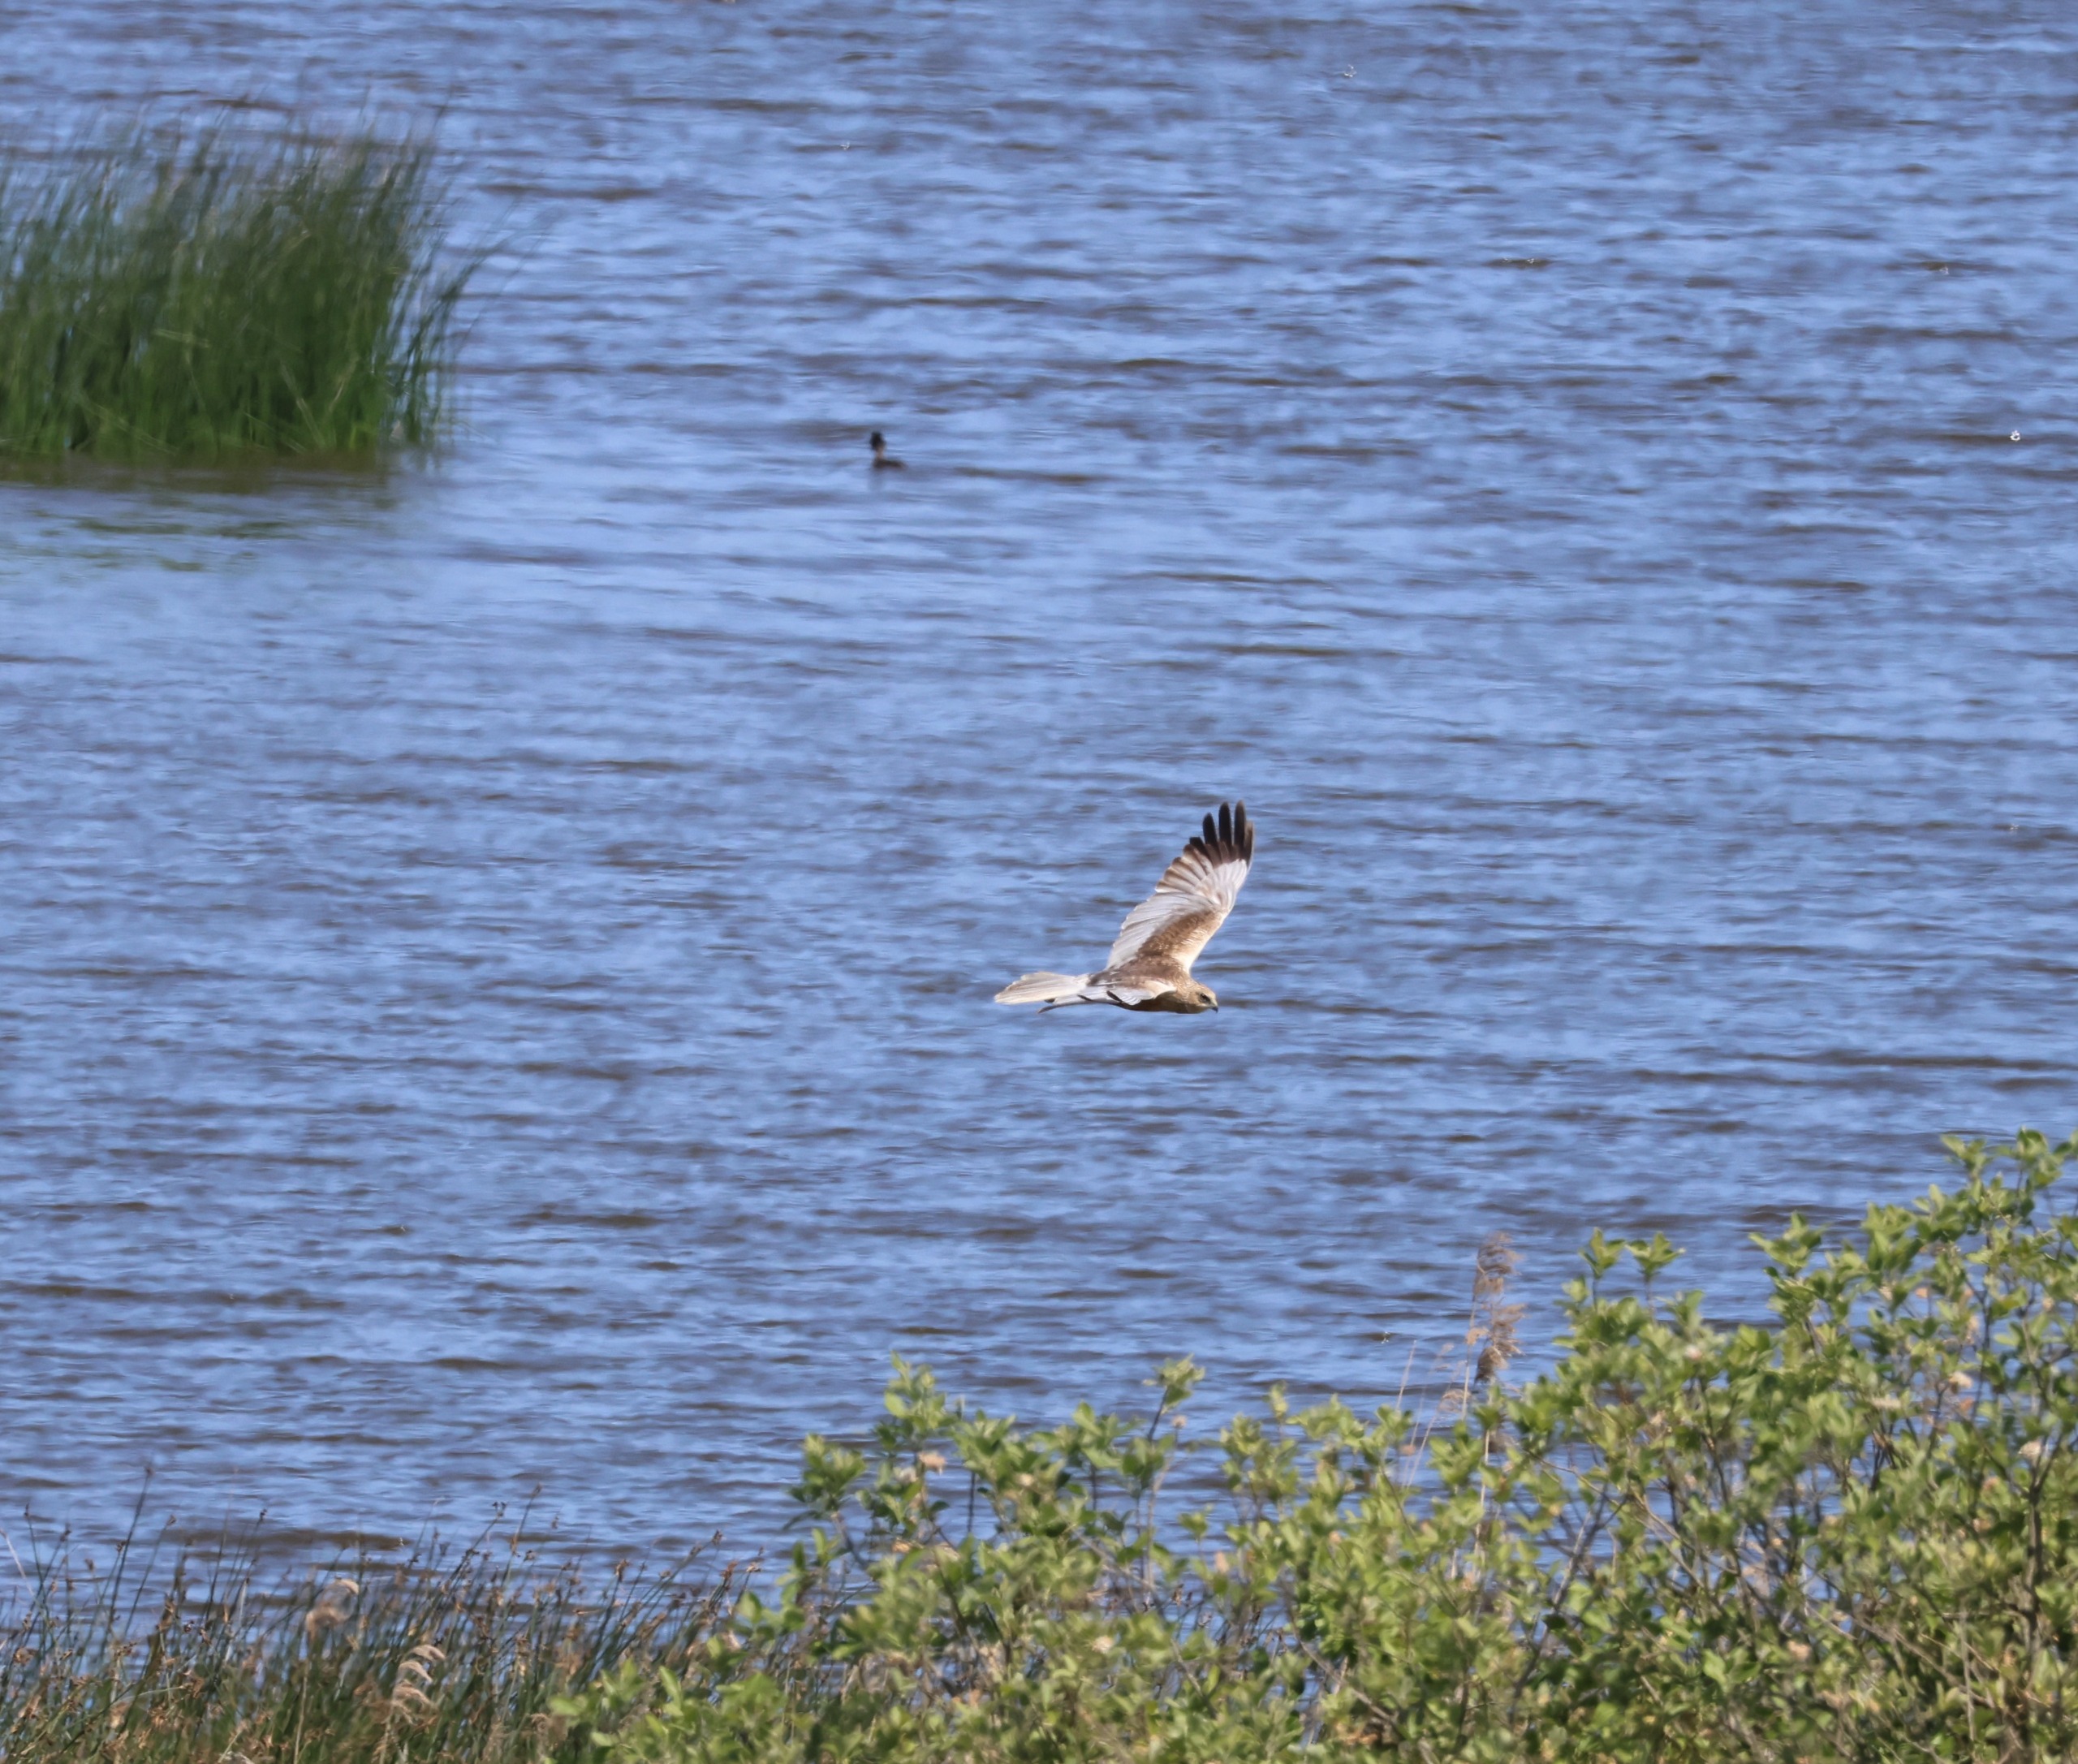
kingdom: Animalia
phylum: Chordata
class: Aves
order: Accipitriformes
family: Accipitridae
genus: Circus
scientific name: Circus aeruginosus
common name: Rørhøg
